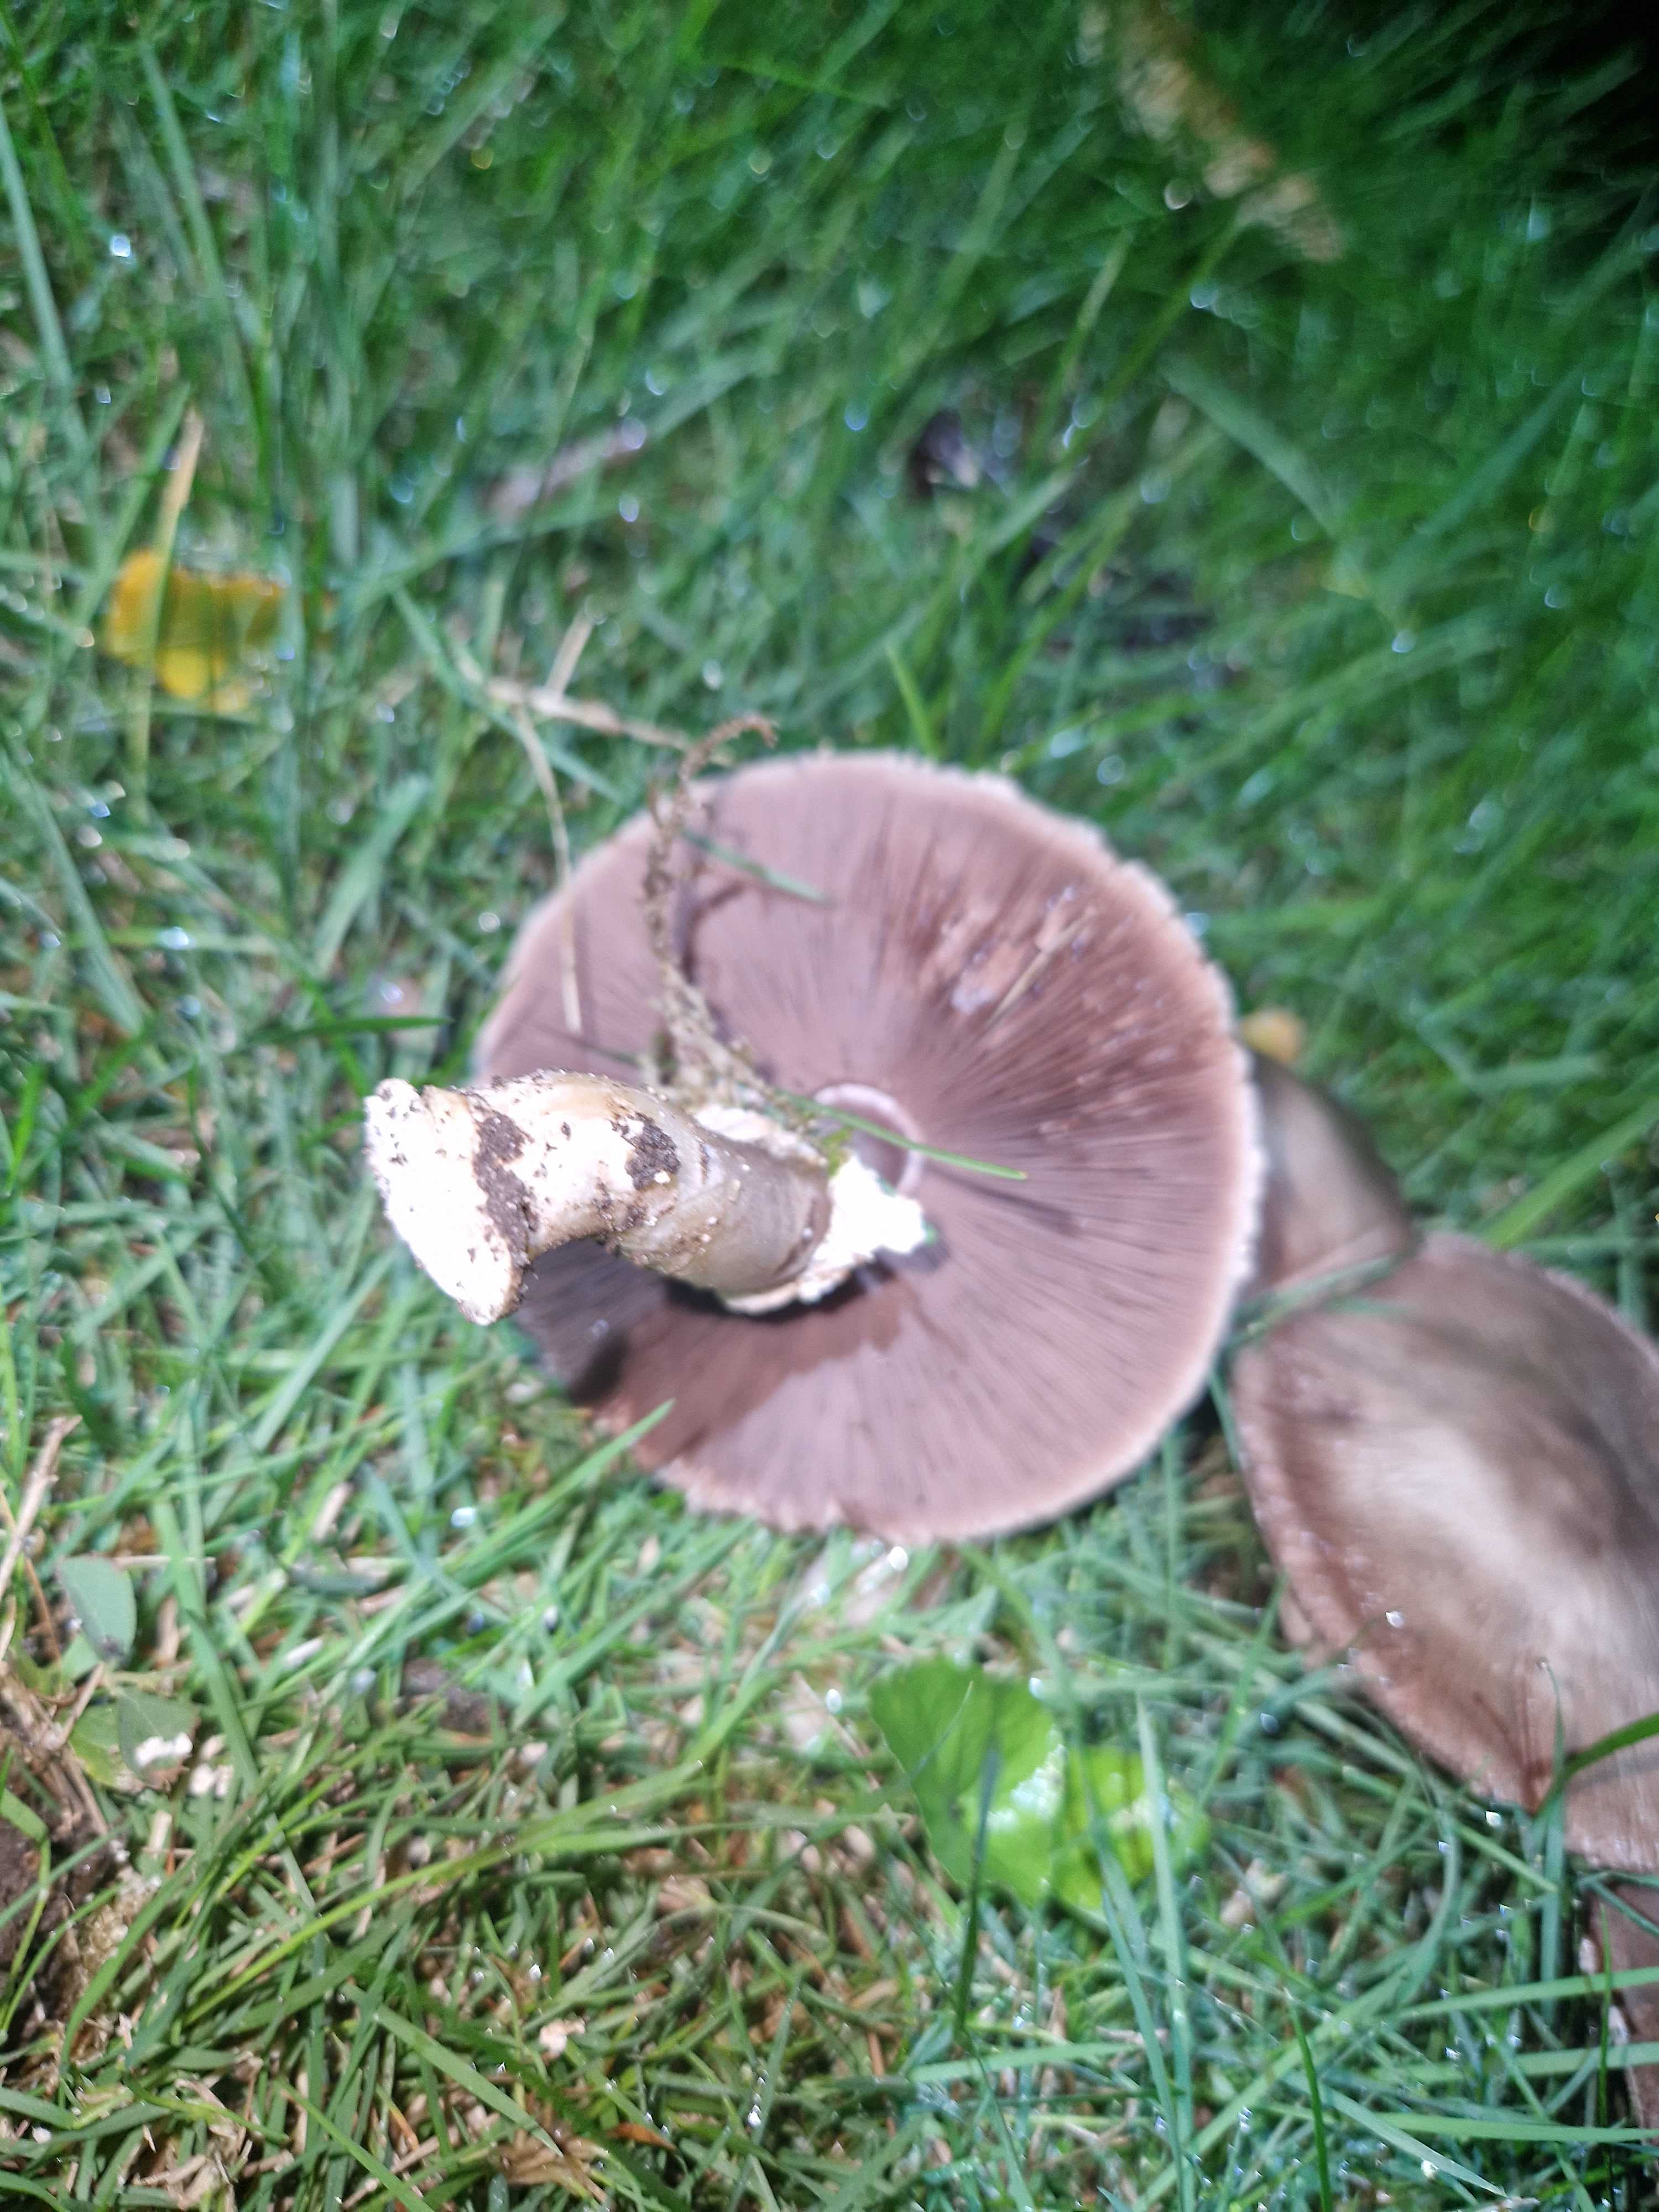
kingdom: Fungi
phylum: Basidiomycota
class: Agaricomycetes
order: Agaricales
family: Agaricaceae
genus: Agaricus
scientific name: Agaricus
